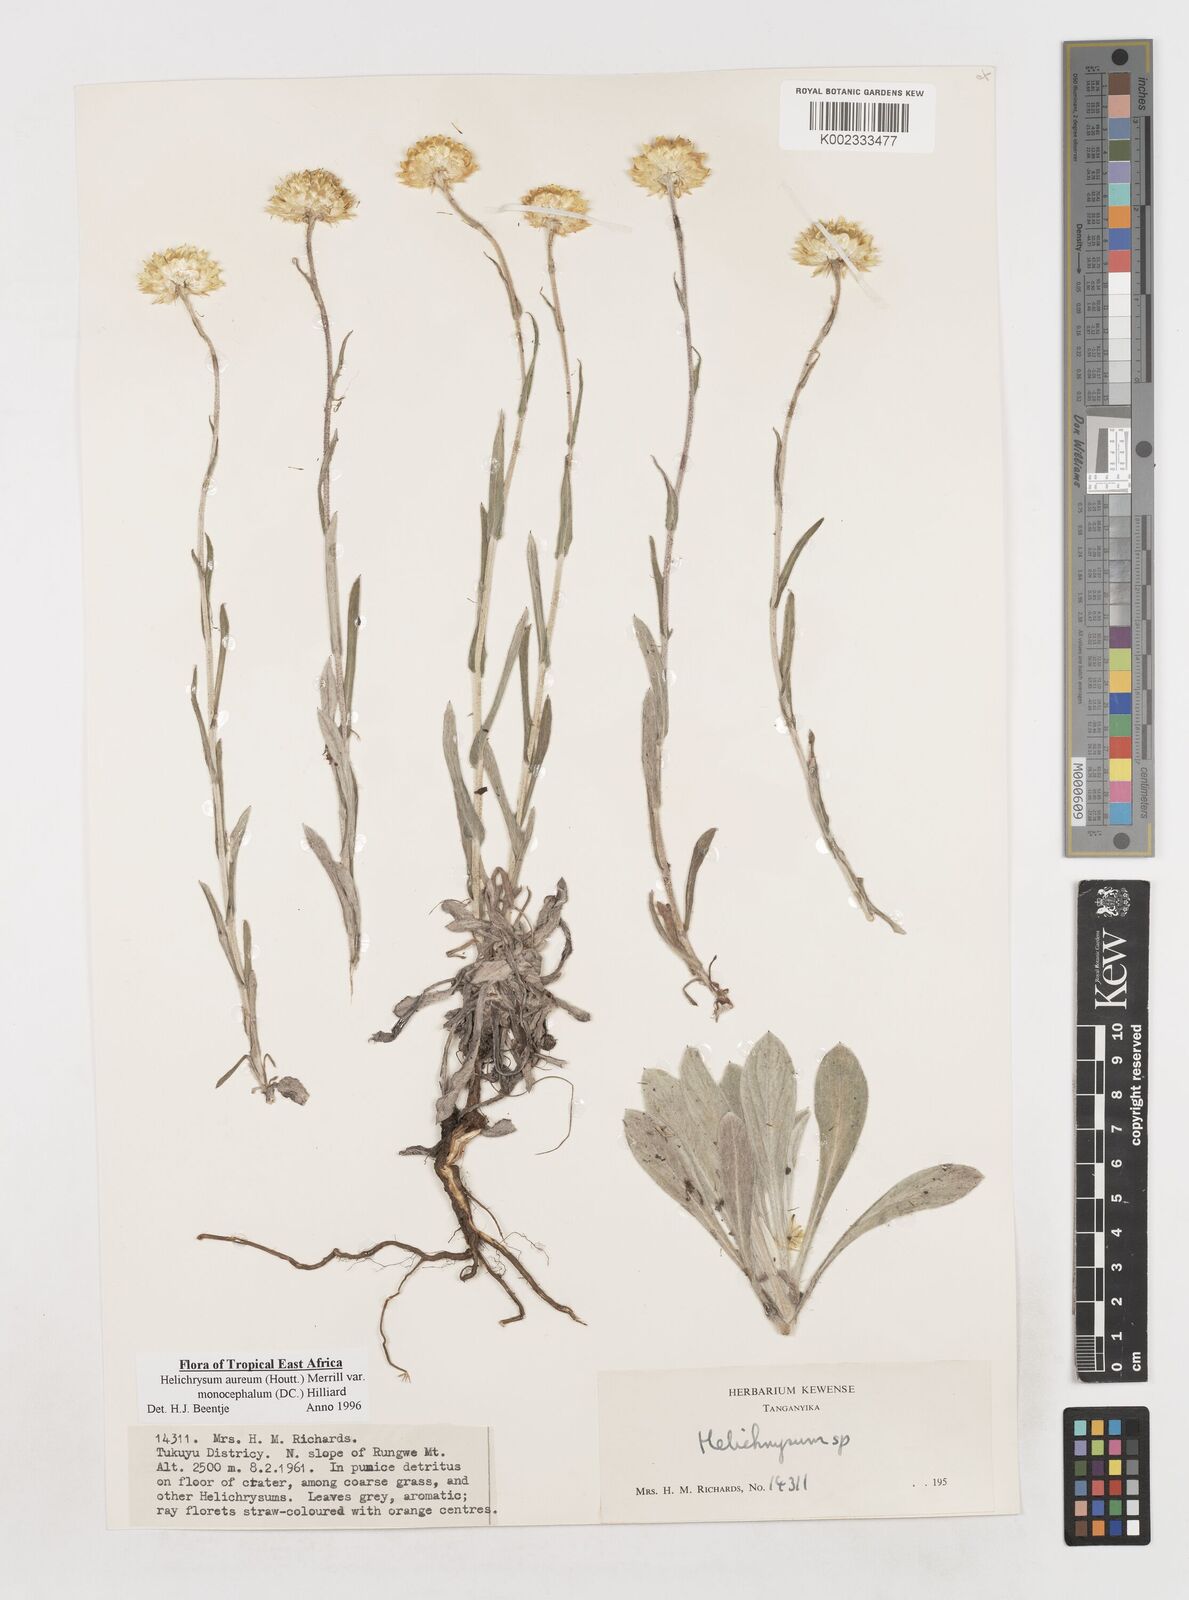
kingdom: Plantae
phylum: Tracheophyta
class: Magnoliopsida
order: Asterales
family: Asteraceae
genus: Helichrysum
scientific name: Helichrysum aureum
